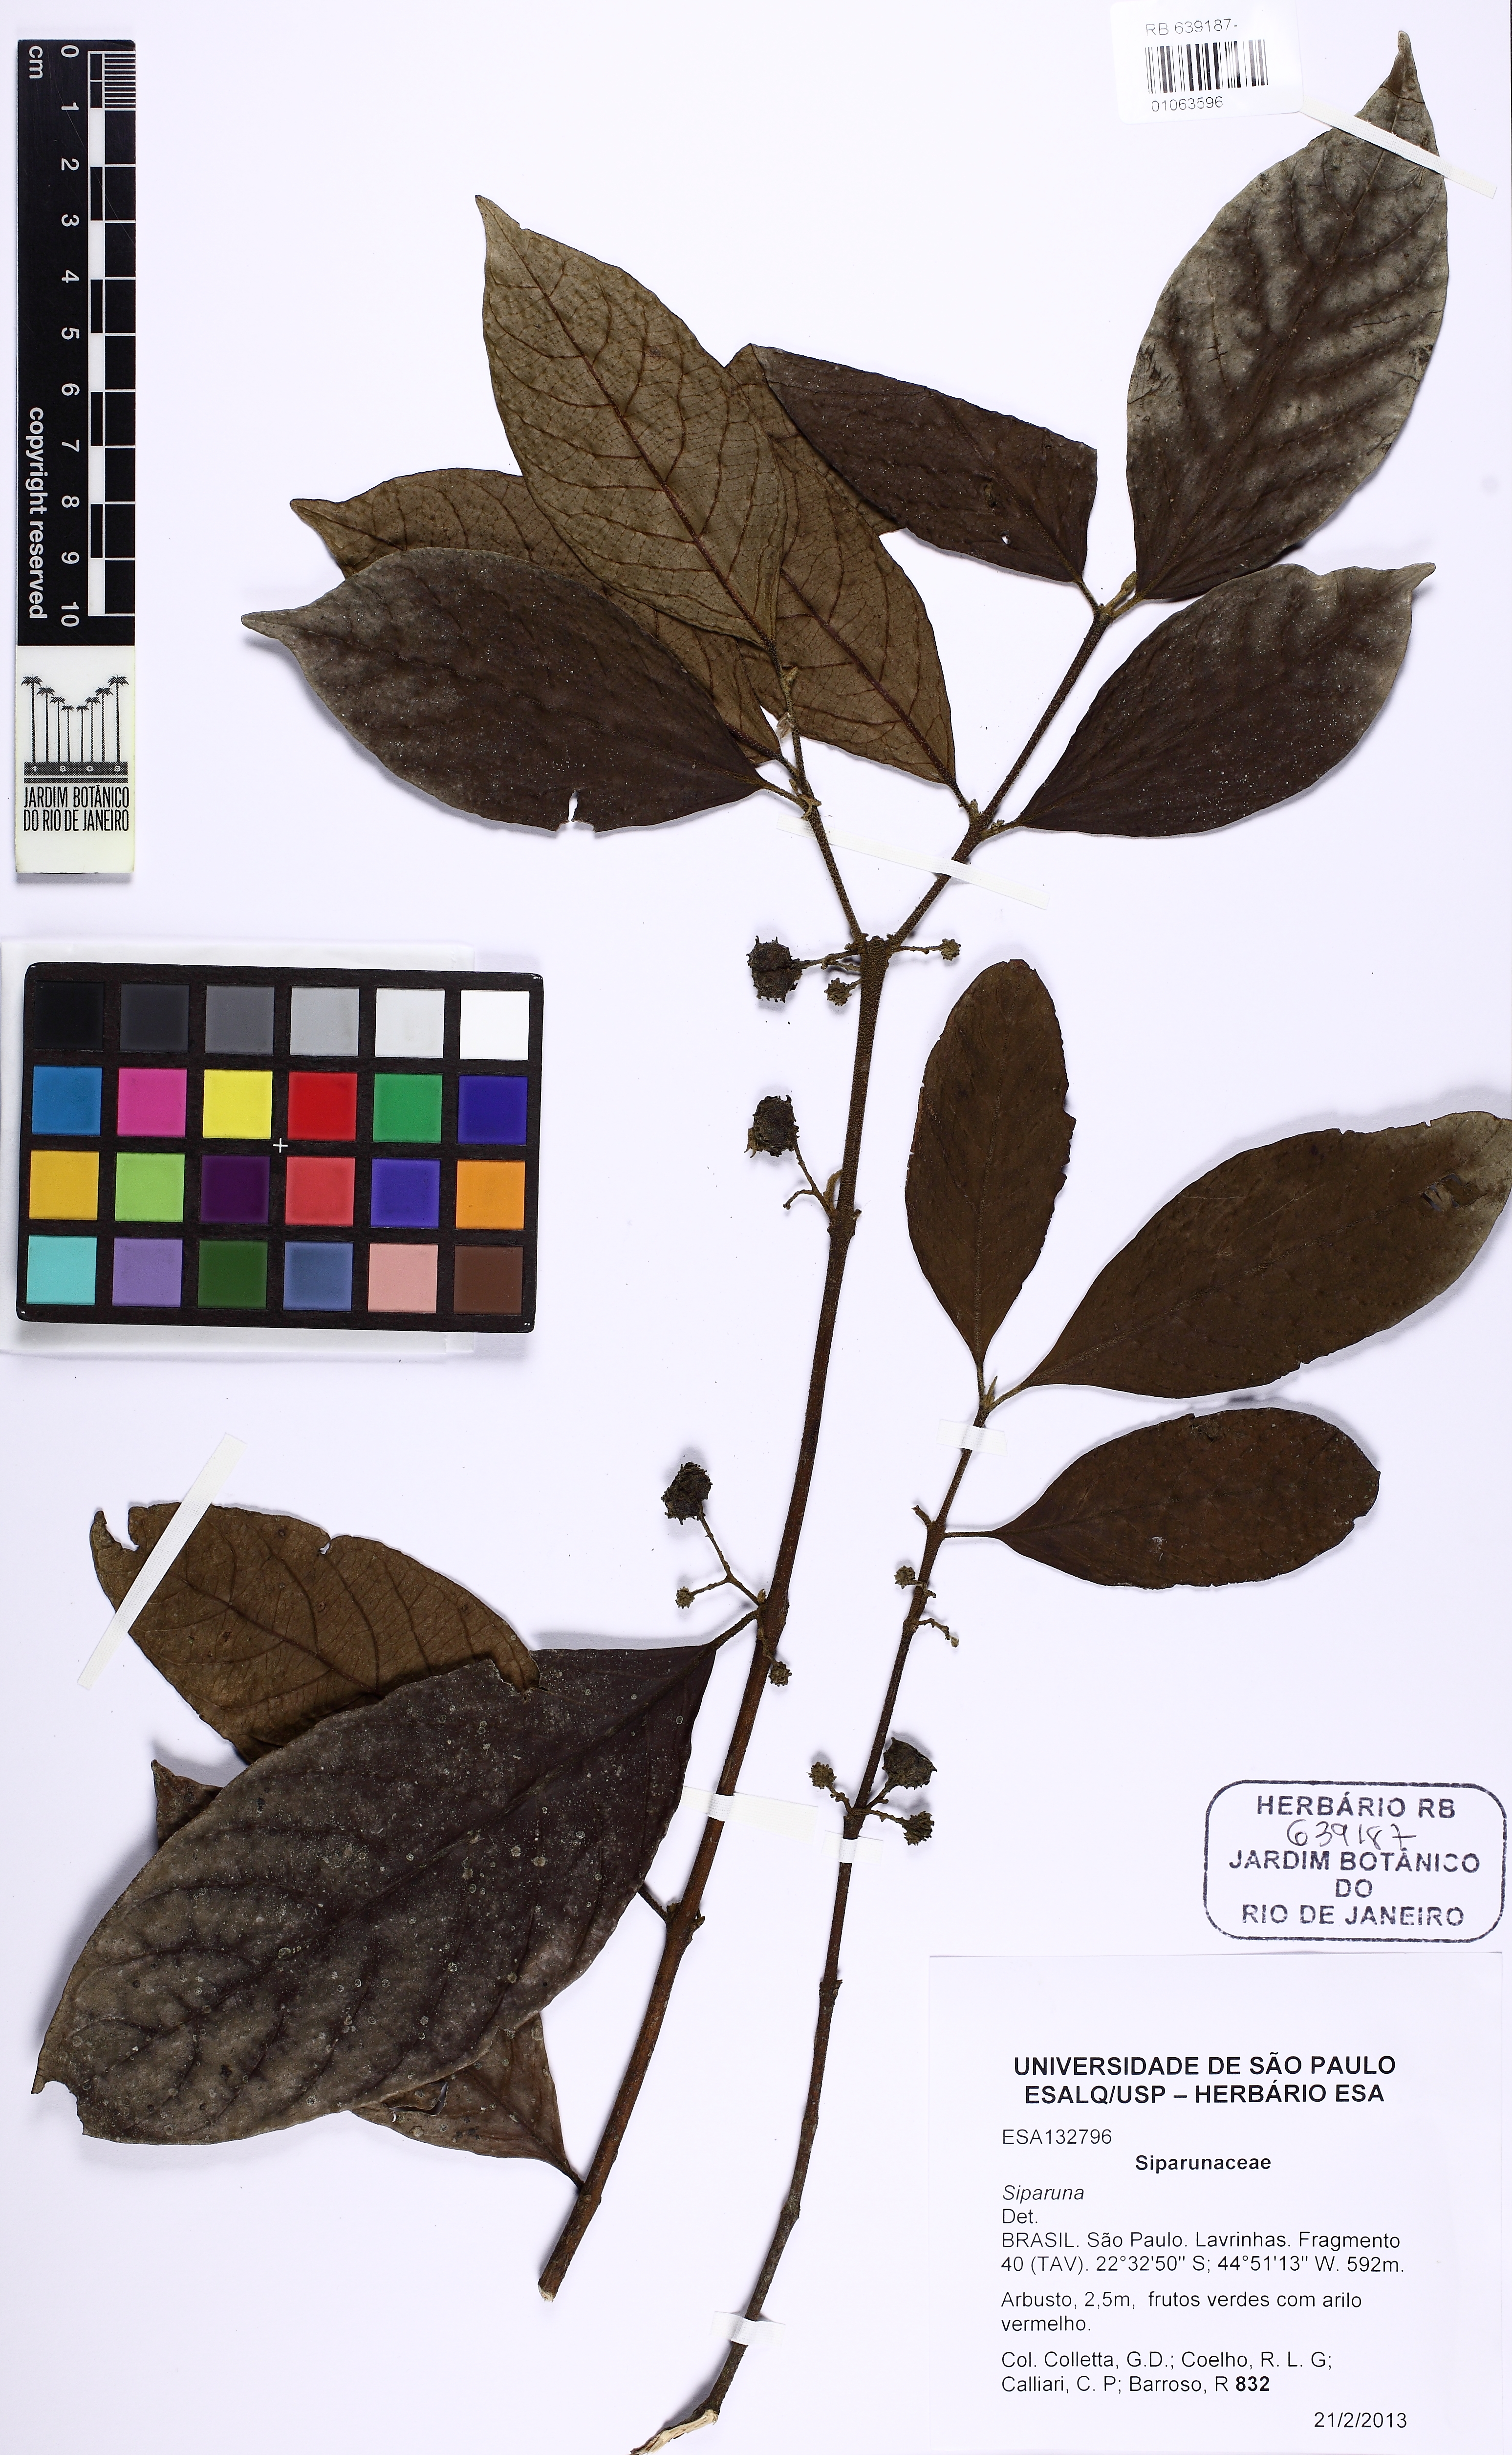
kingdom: Plantae
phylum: Tracheophyta
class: Magnoliopsida
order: Laurales
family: Siparunaceae
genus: Siparuna
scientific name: Siparuna bifida
